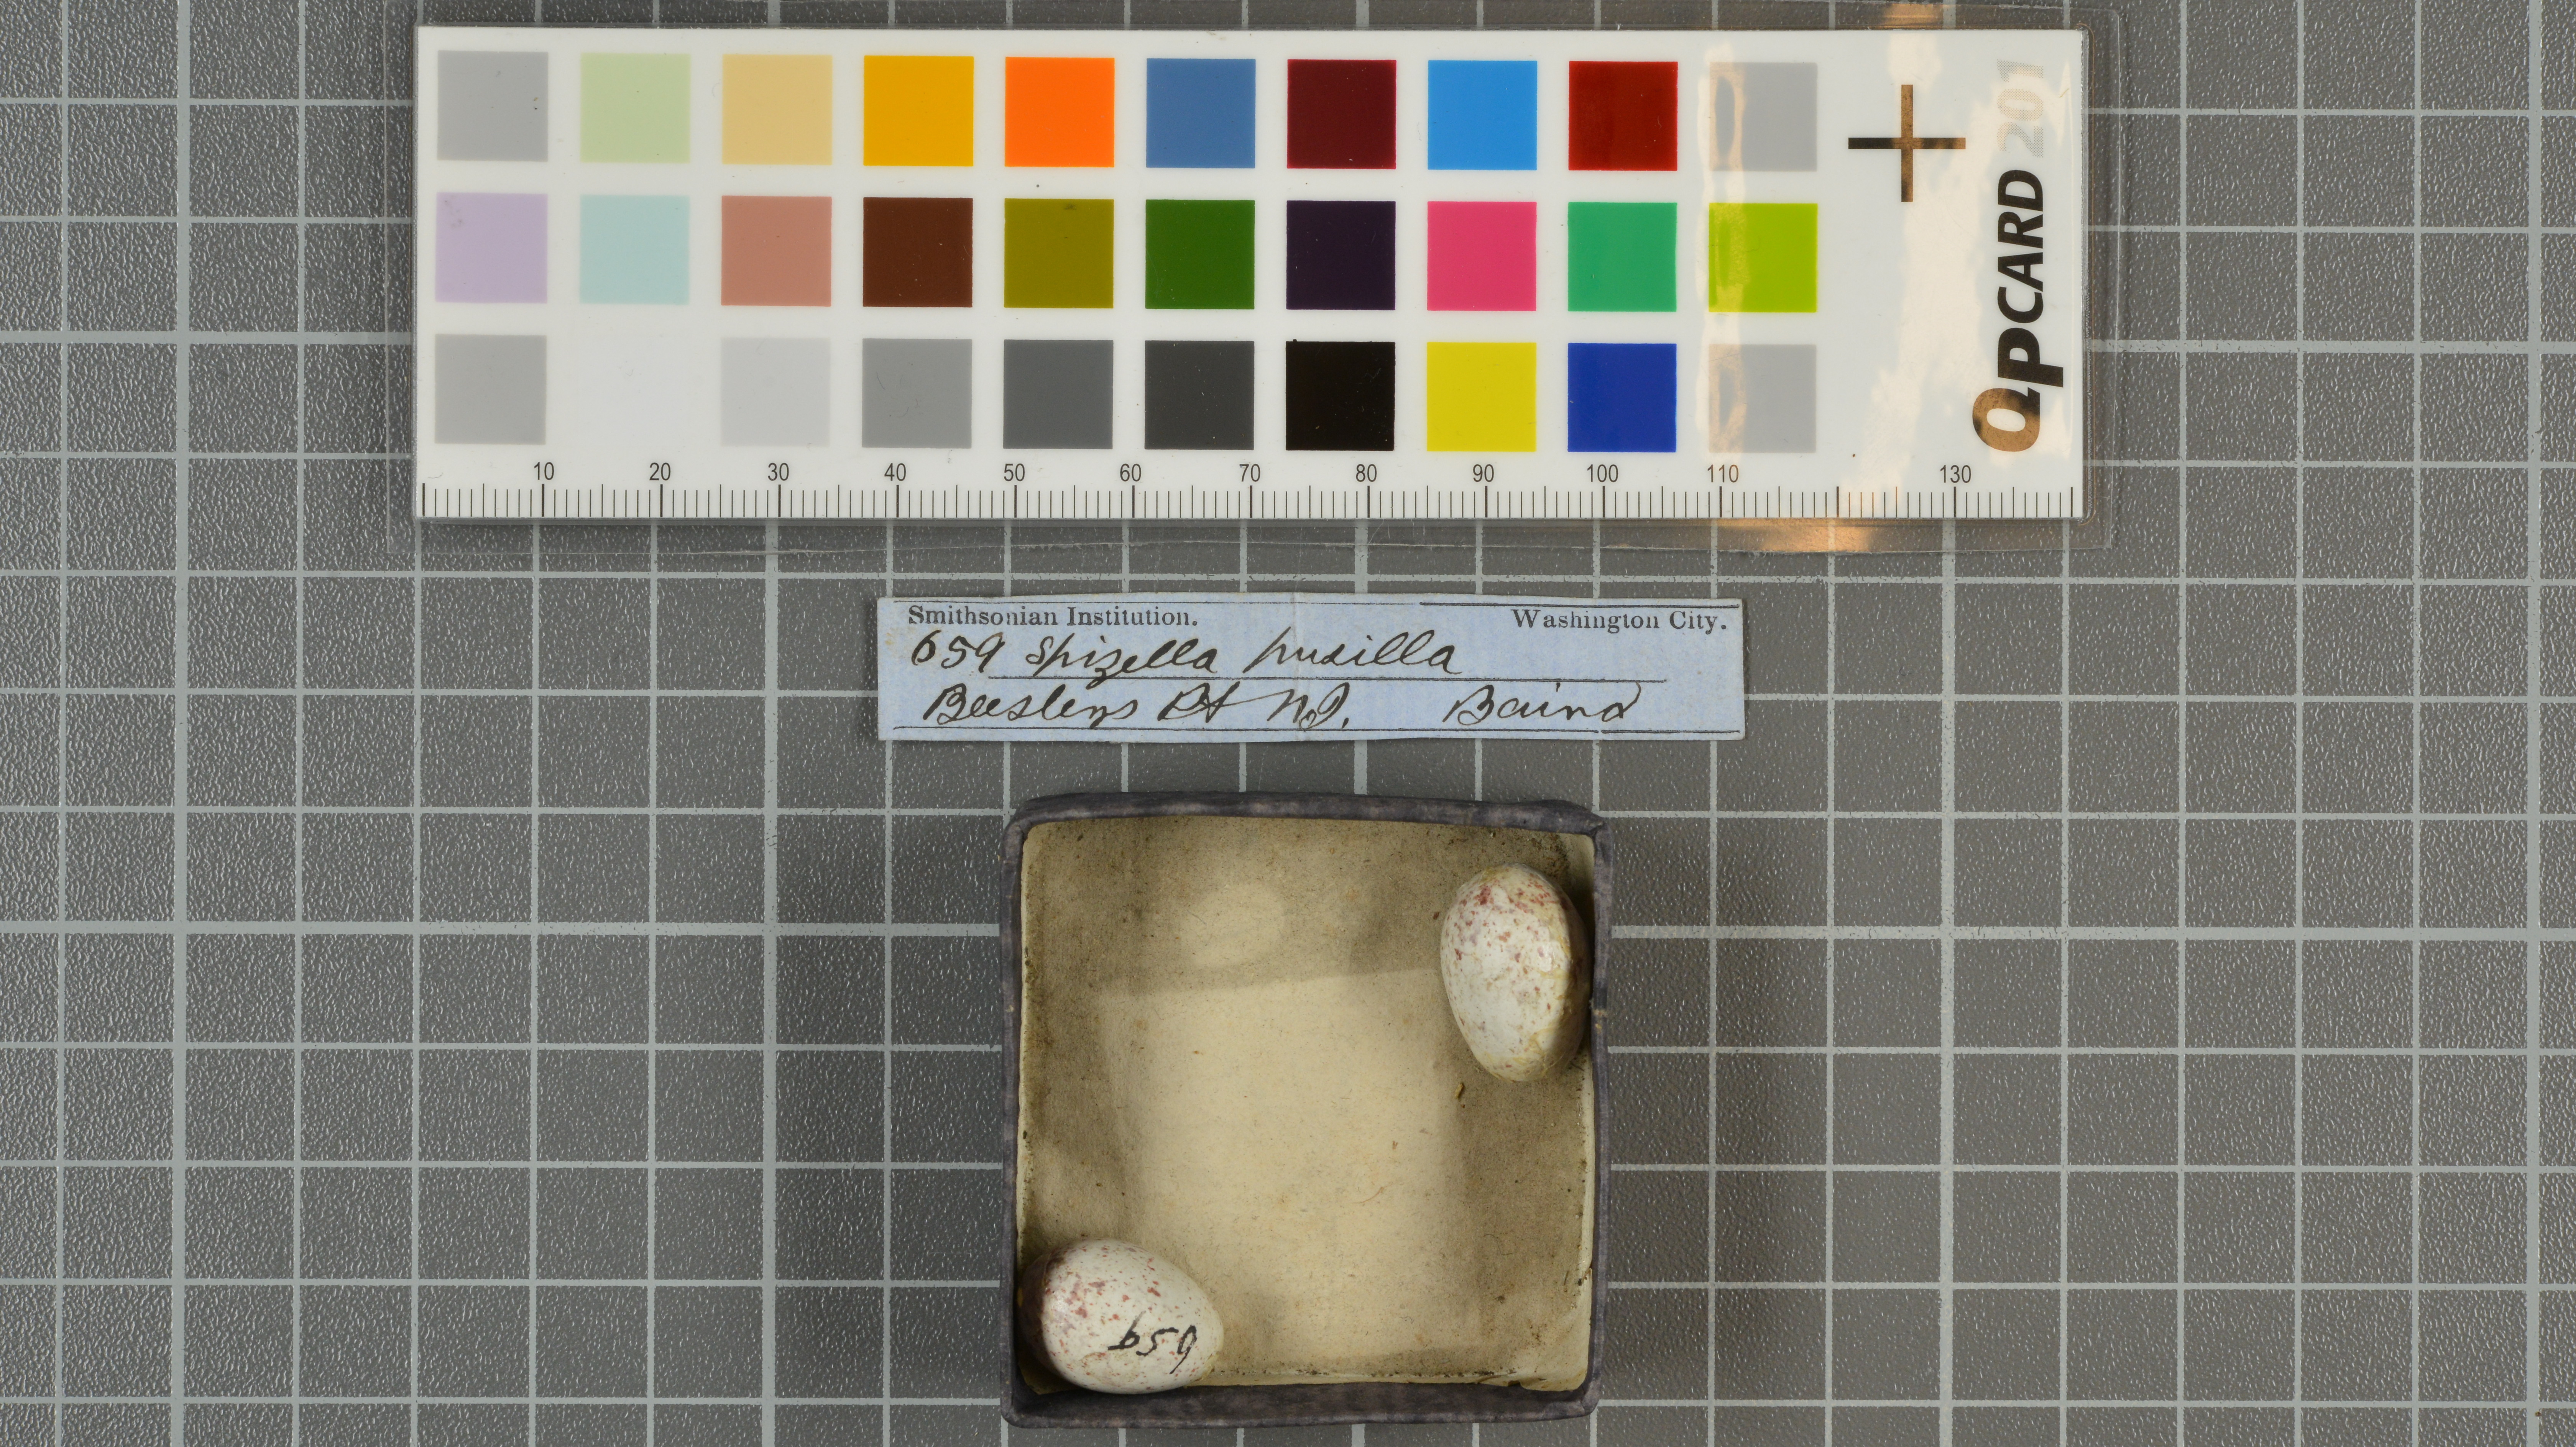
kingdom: Animalia
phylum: Chordata
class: Aves
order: Passeriformes
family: Passerellidae
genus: Spizella
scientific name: Spizella pusilla
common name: Field sparrow
